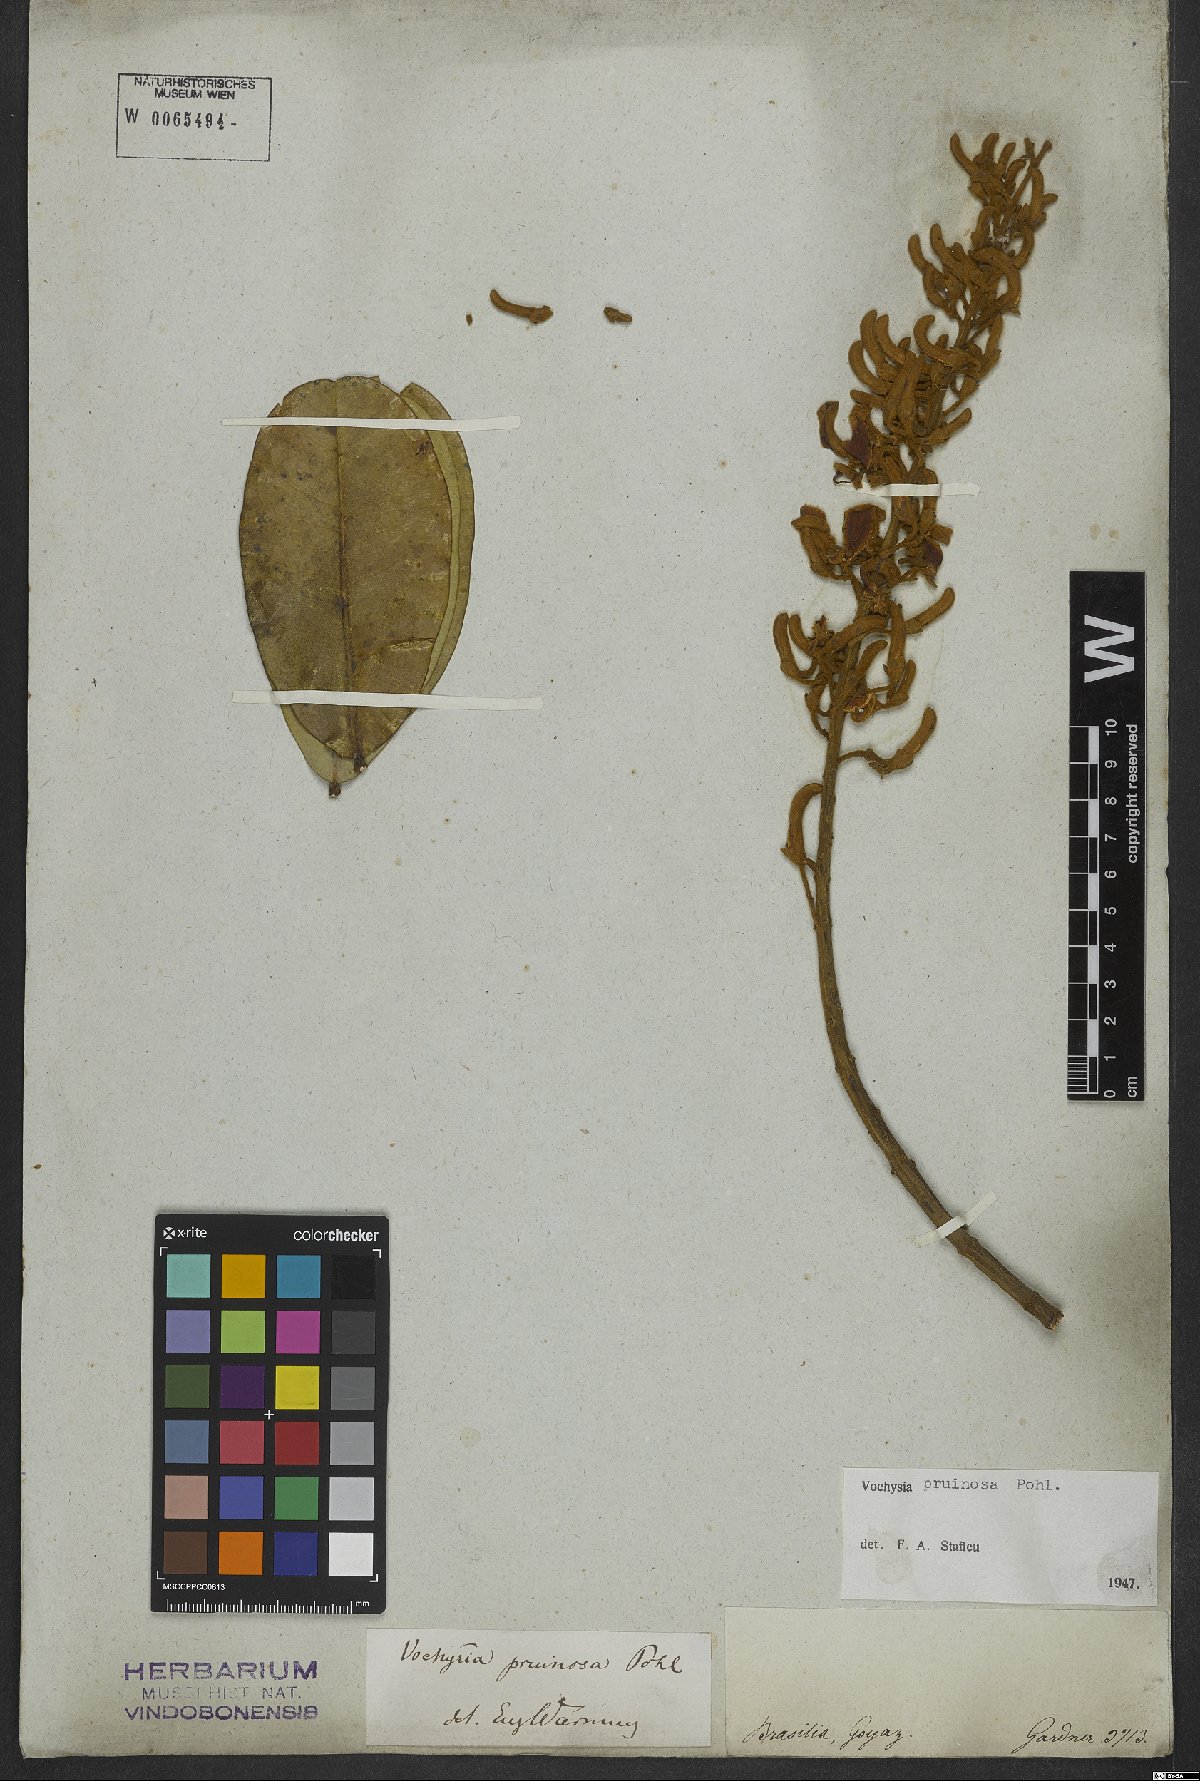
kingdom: Plantae
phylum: Tracheophyta
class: Magnoliopsida
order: Myrtales
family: Vochysiaceae
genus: Vochysia
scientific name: Vochysia pruinosa
